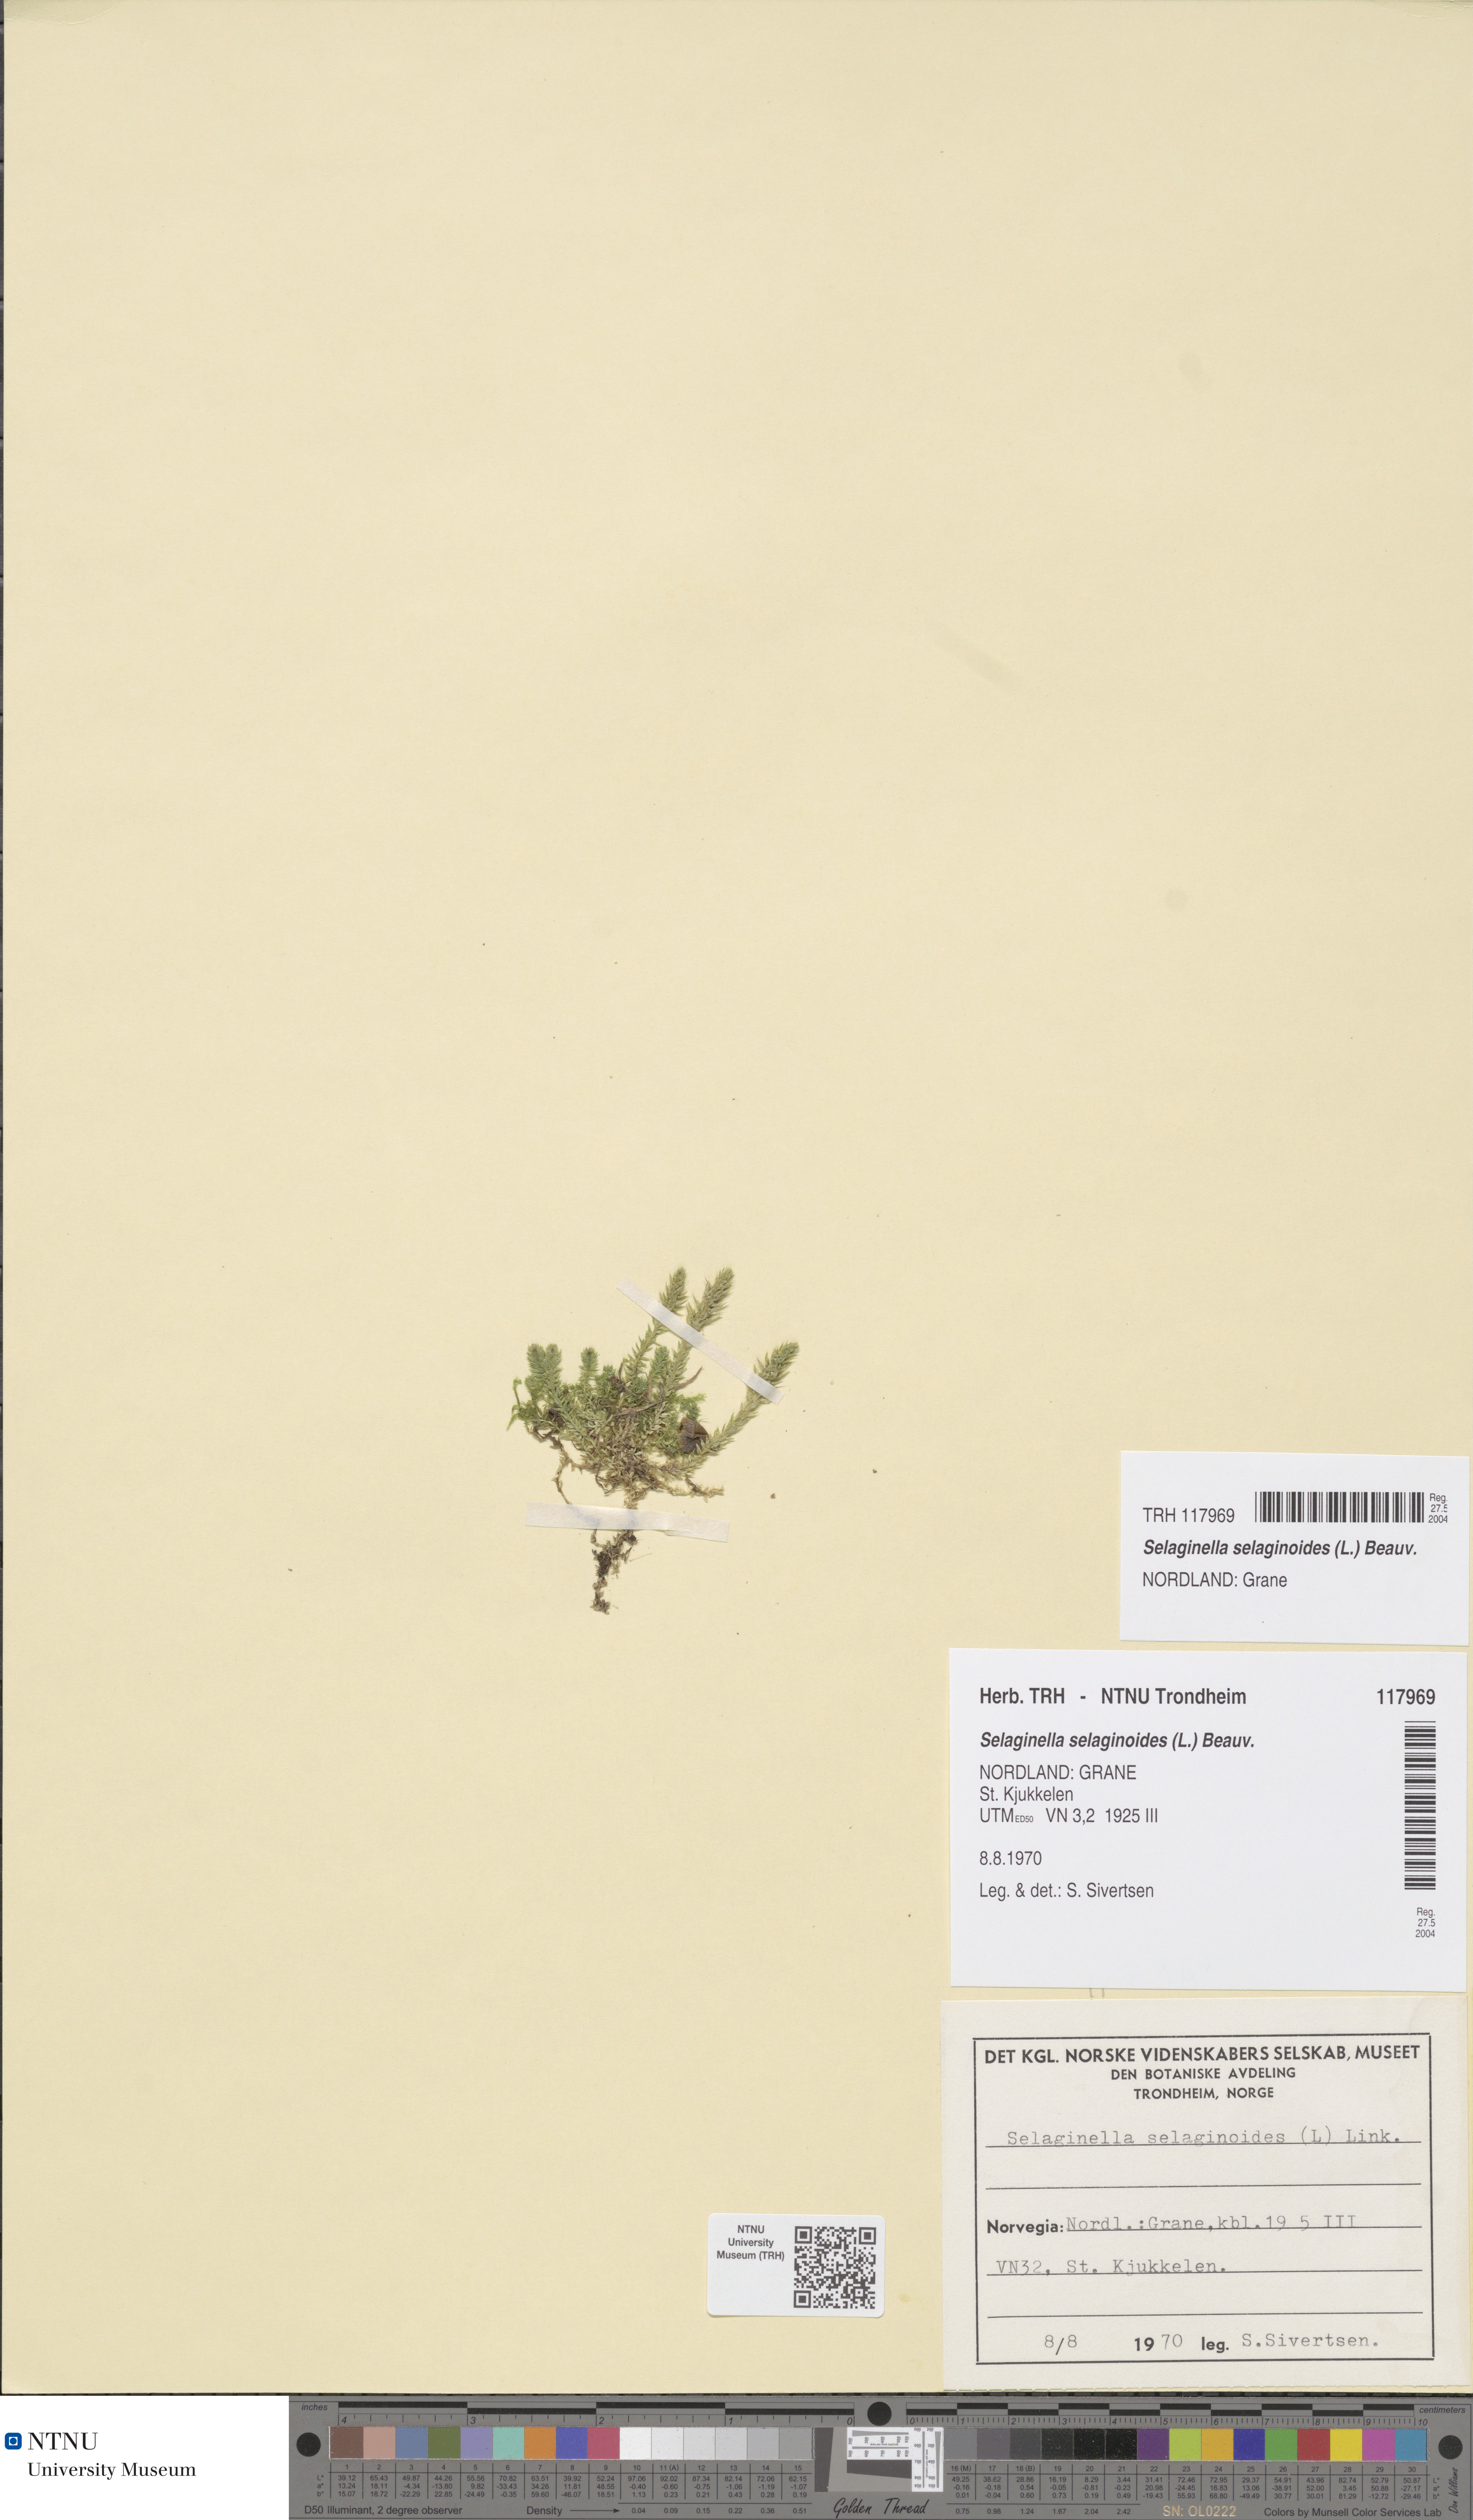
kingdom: Plantae
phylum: Tracheophyta
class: Lycopodiopsida
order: Selaginellales
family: Selaginellaceae
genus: Selaginella
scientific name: Selaginella selaginoides
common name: Prickly mountain-moss
